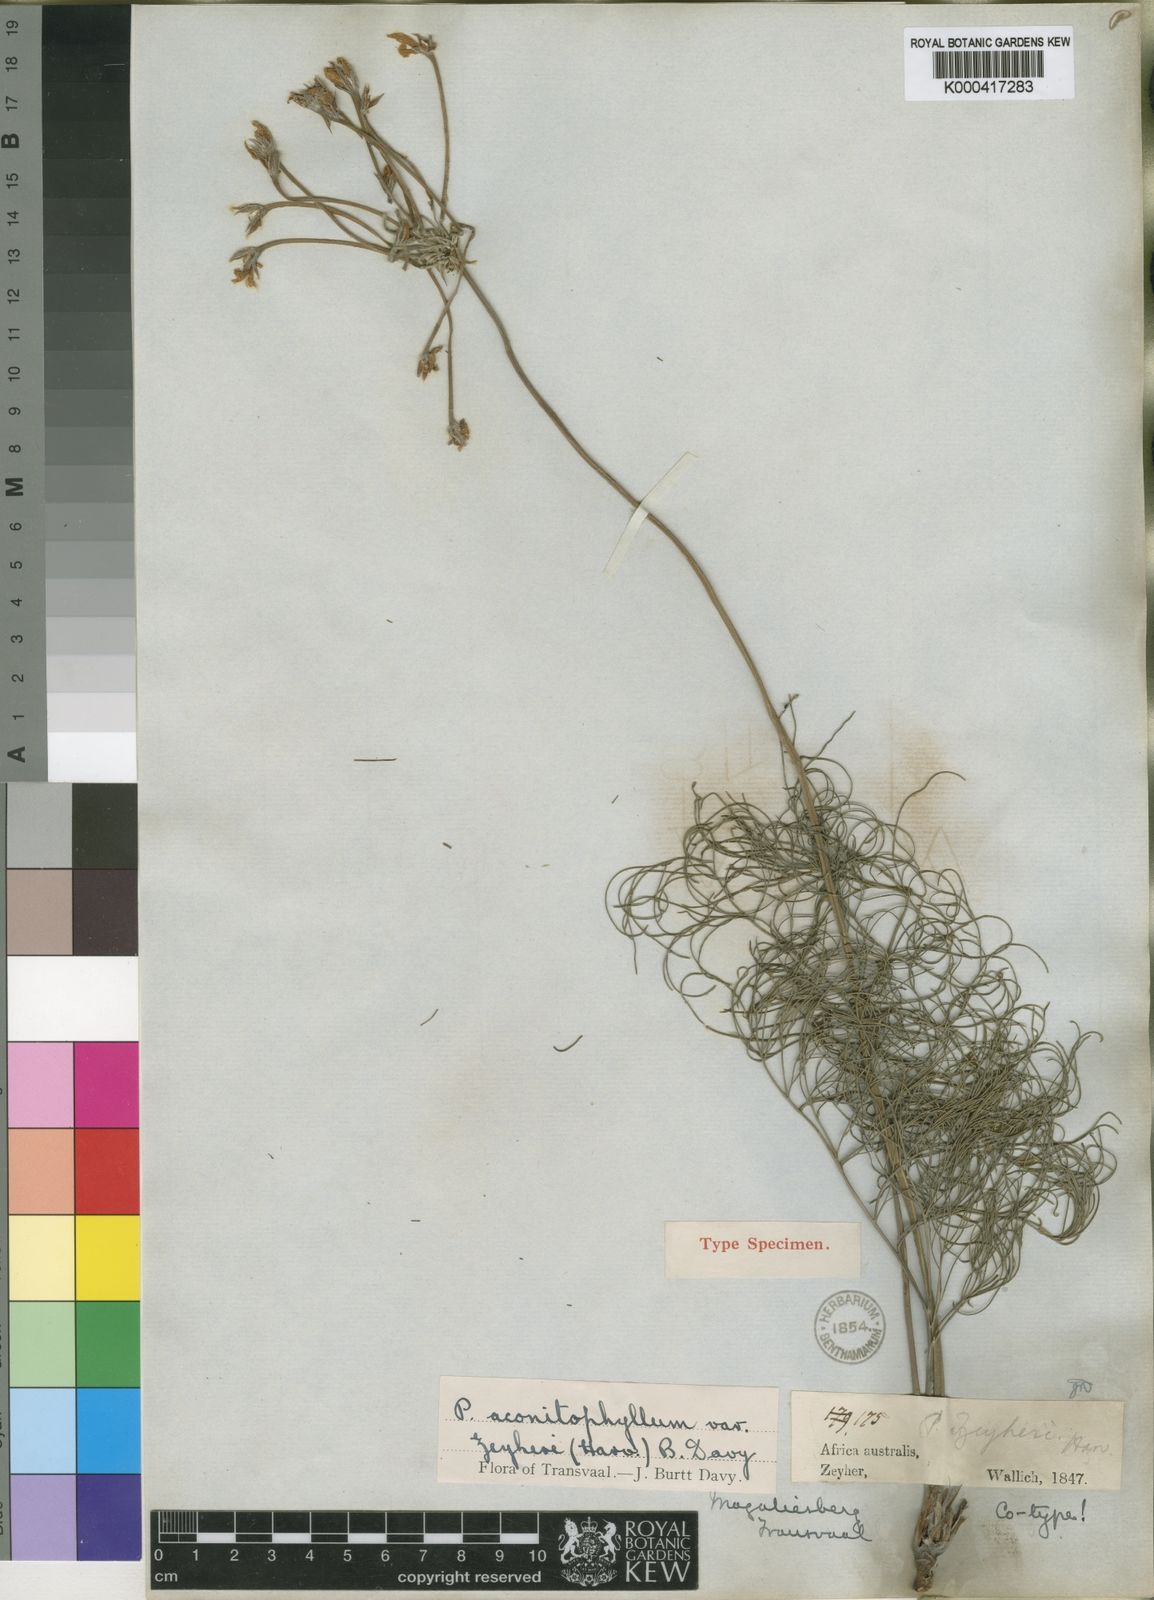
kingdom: Plantae
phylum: Tracheophyta
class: Magnoliopsida
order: Geraniales
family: Geraniaceae
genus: Pelargonium
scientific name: Pelargonium luridum
